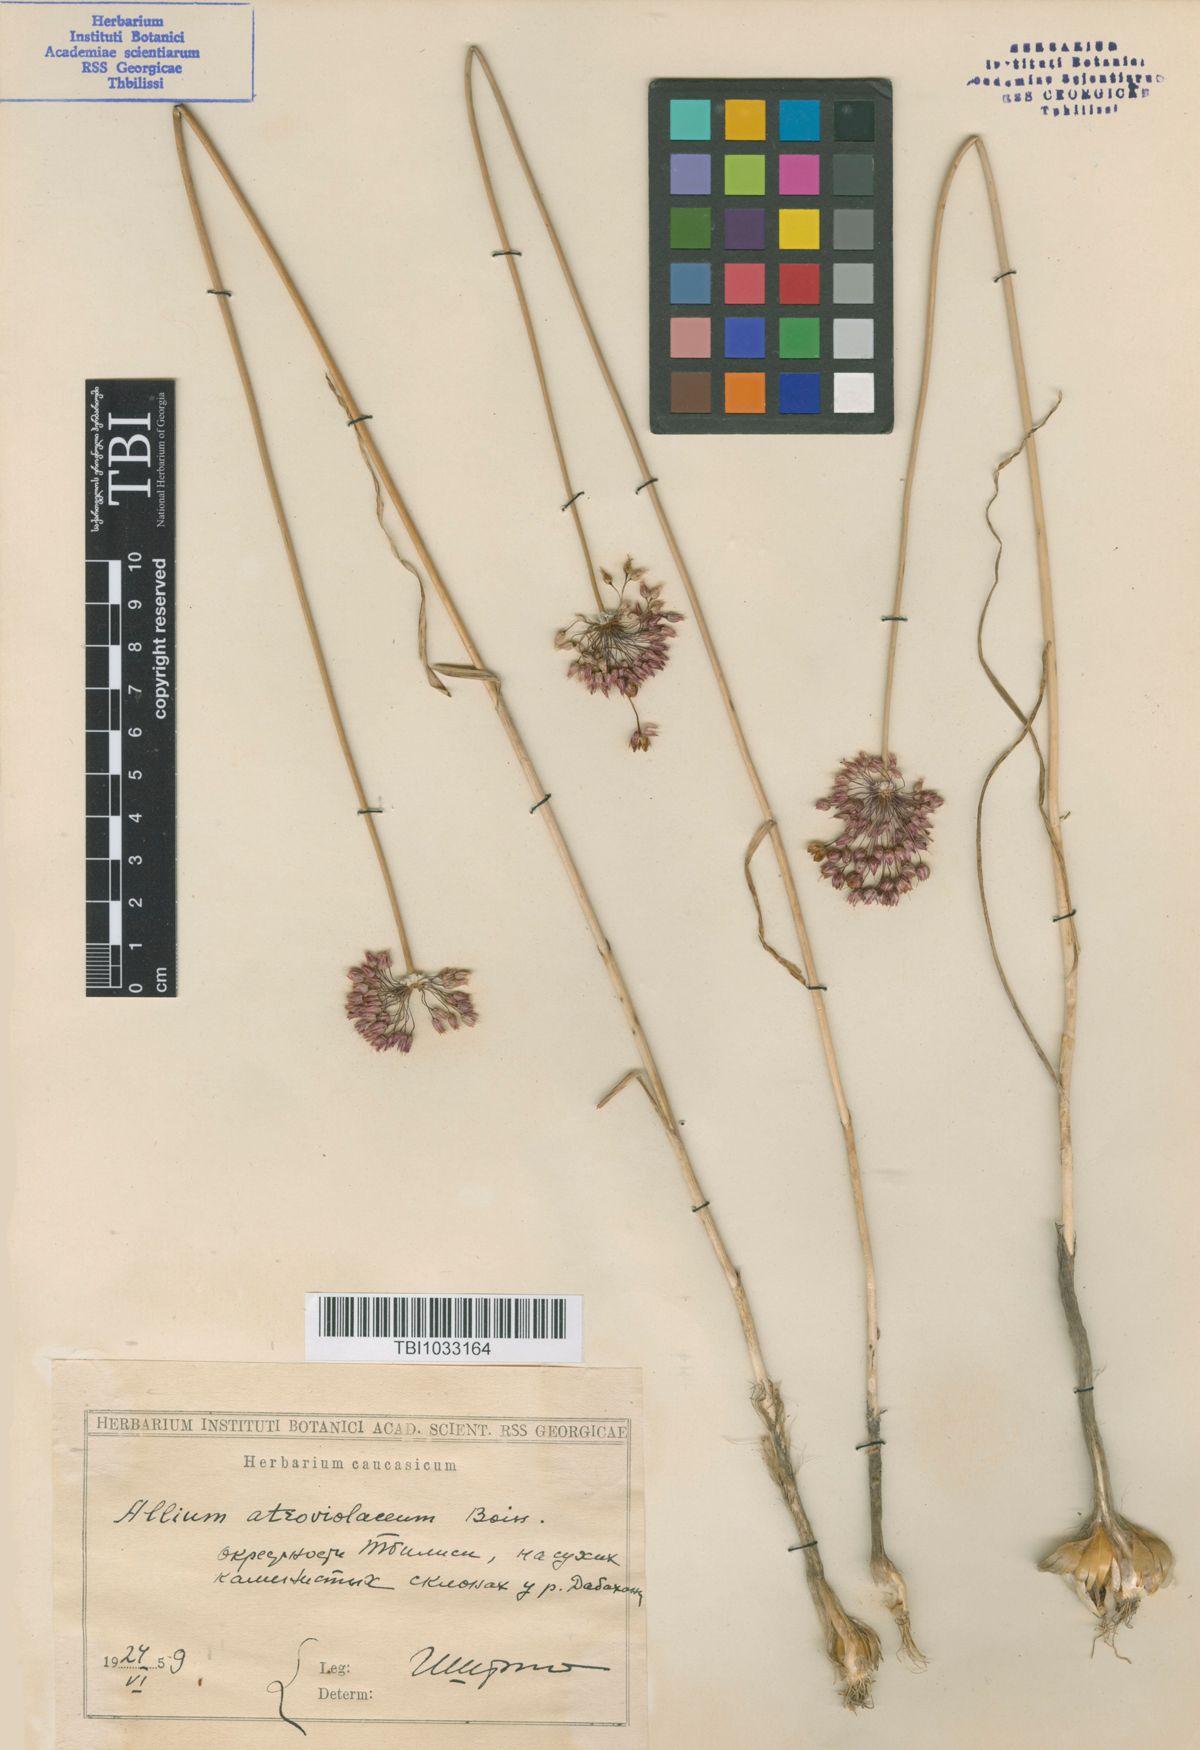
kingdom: Plantae
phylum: Tracheophyta
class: Liliopsida
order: Asparagales
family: Amaryllidaceae
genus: Allium
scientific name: Allium atroviolaceum
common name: Broadleaf wild leek
